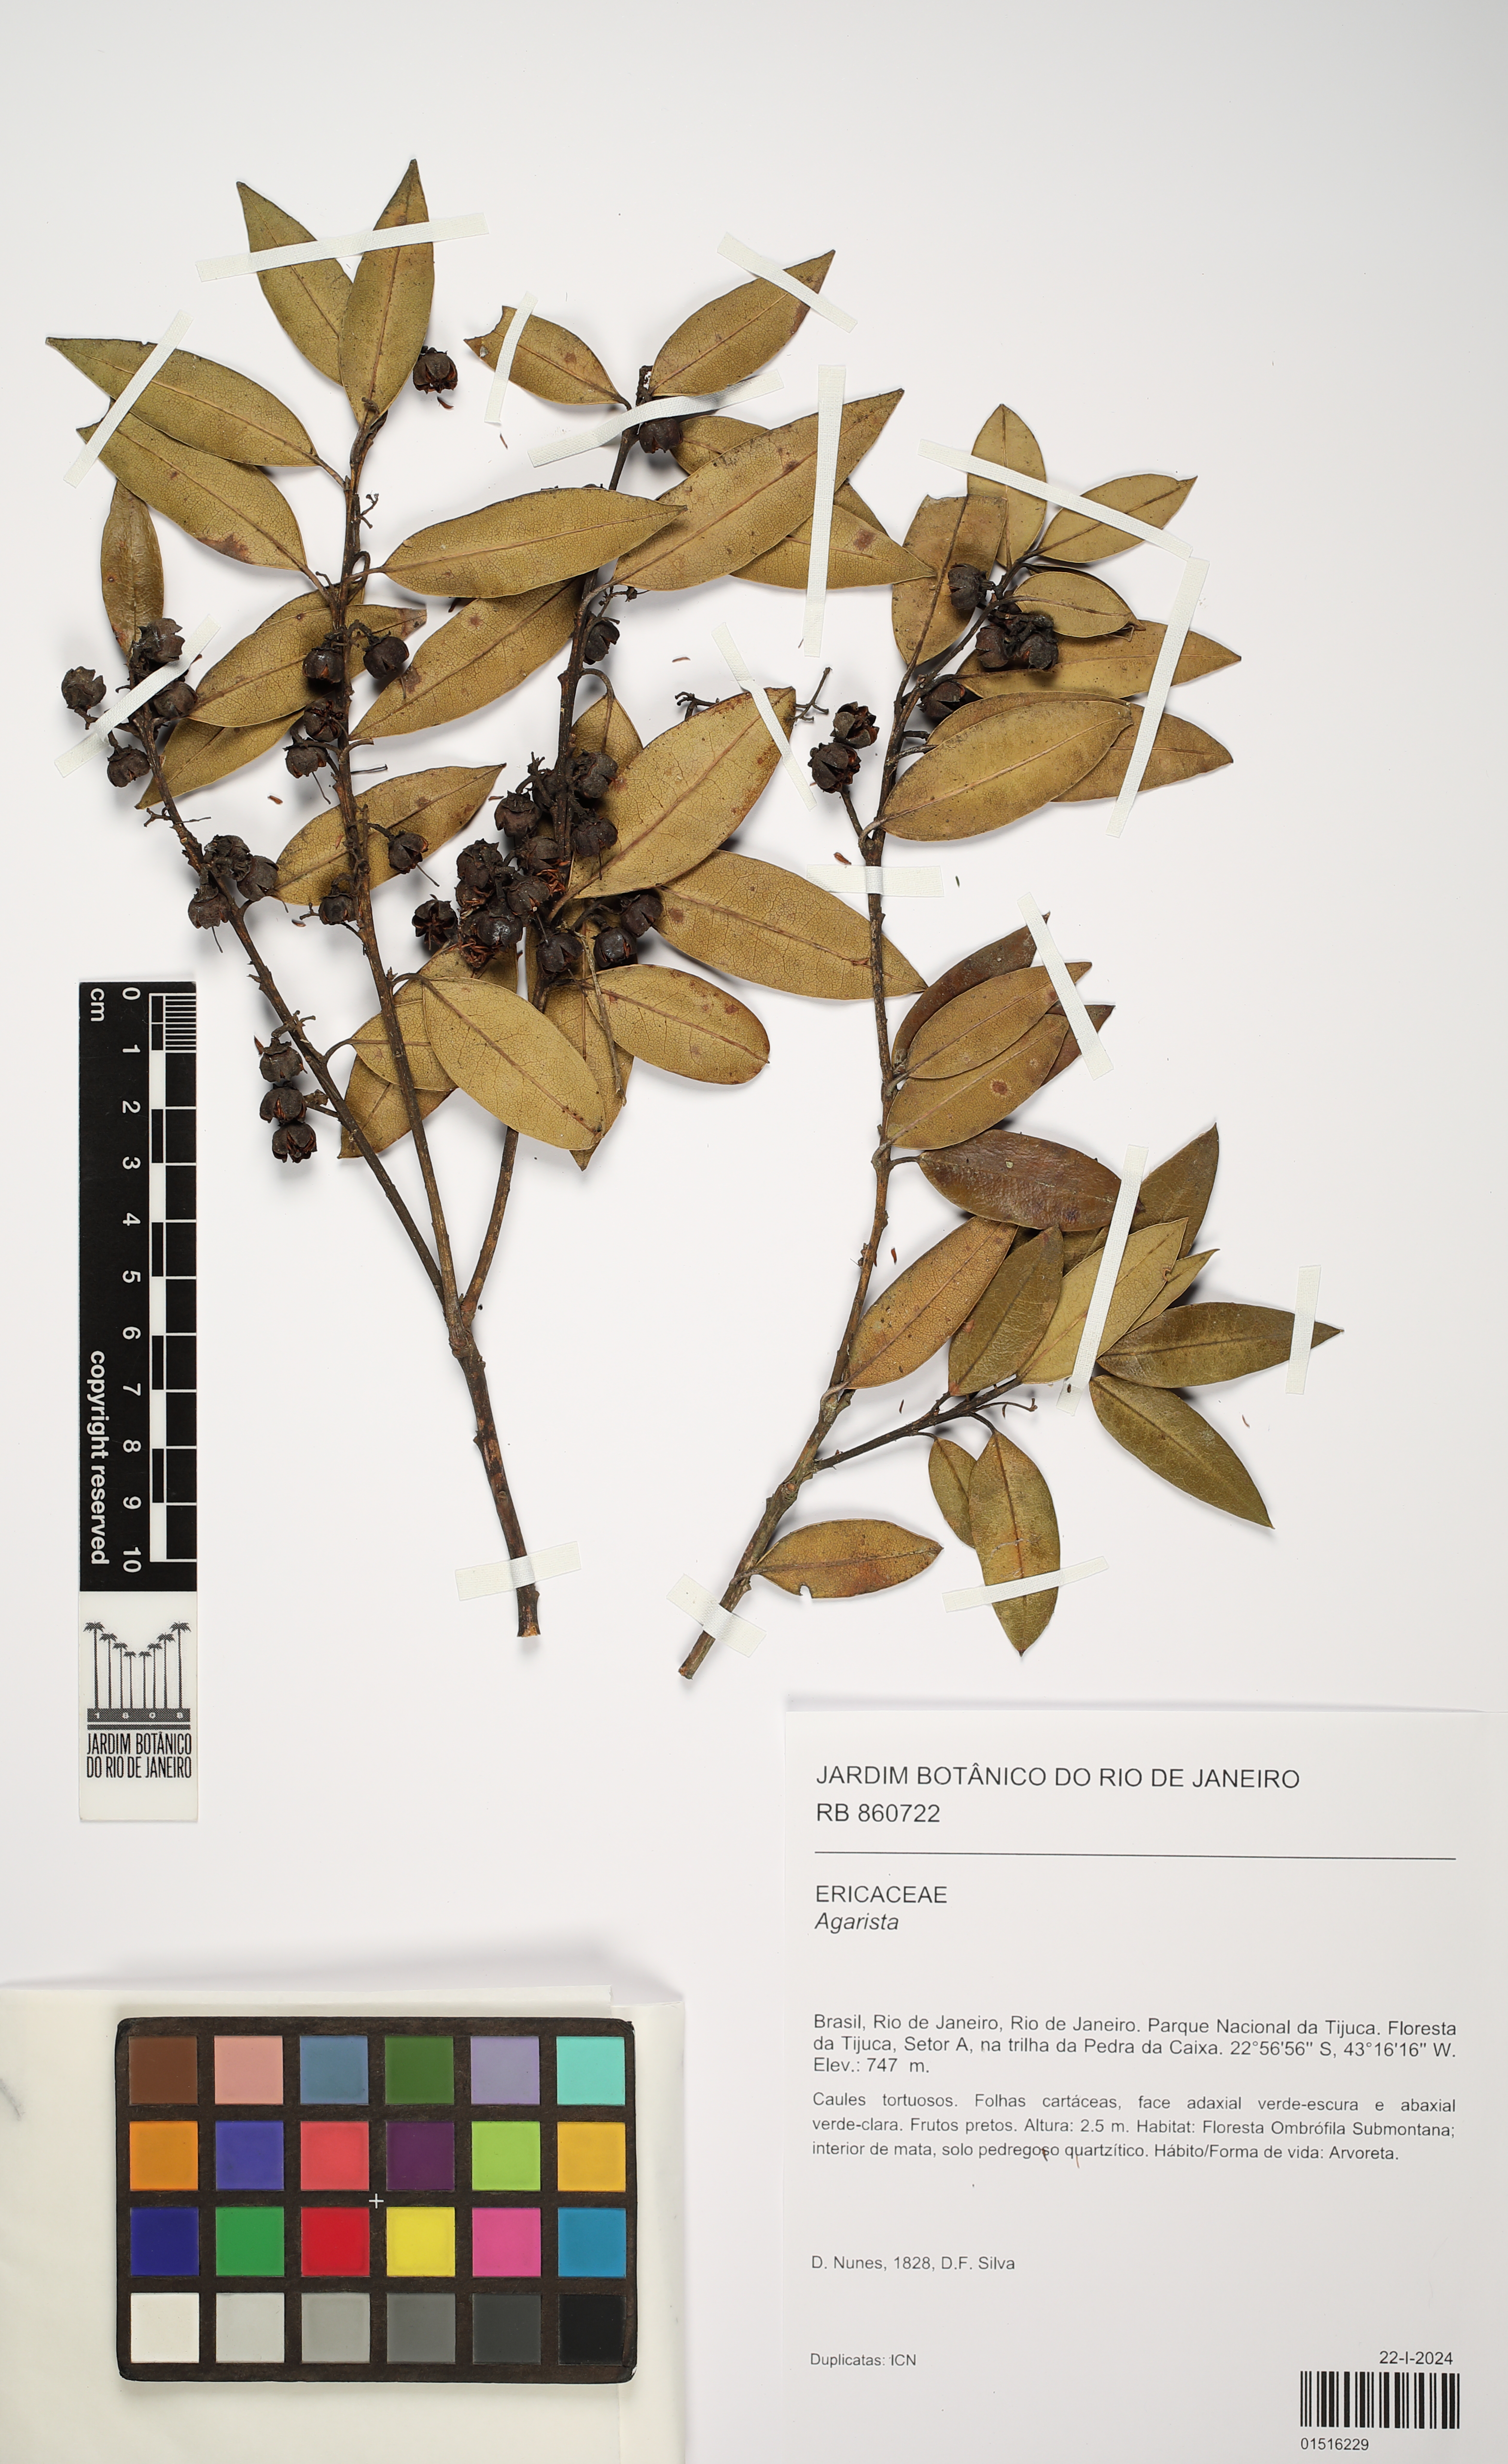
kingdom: Plantae
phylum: Tracheophyta
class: Magnoliopsida
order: Ericales
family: Ericaceae
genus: Agarista
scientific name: Agarista
